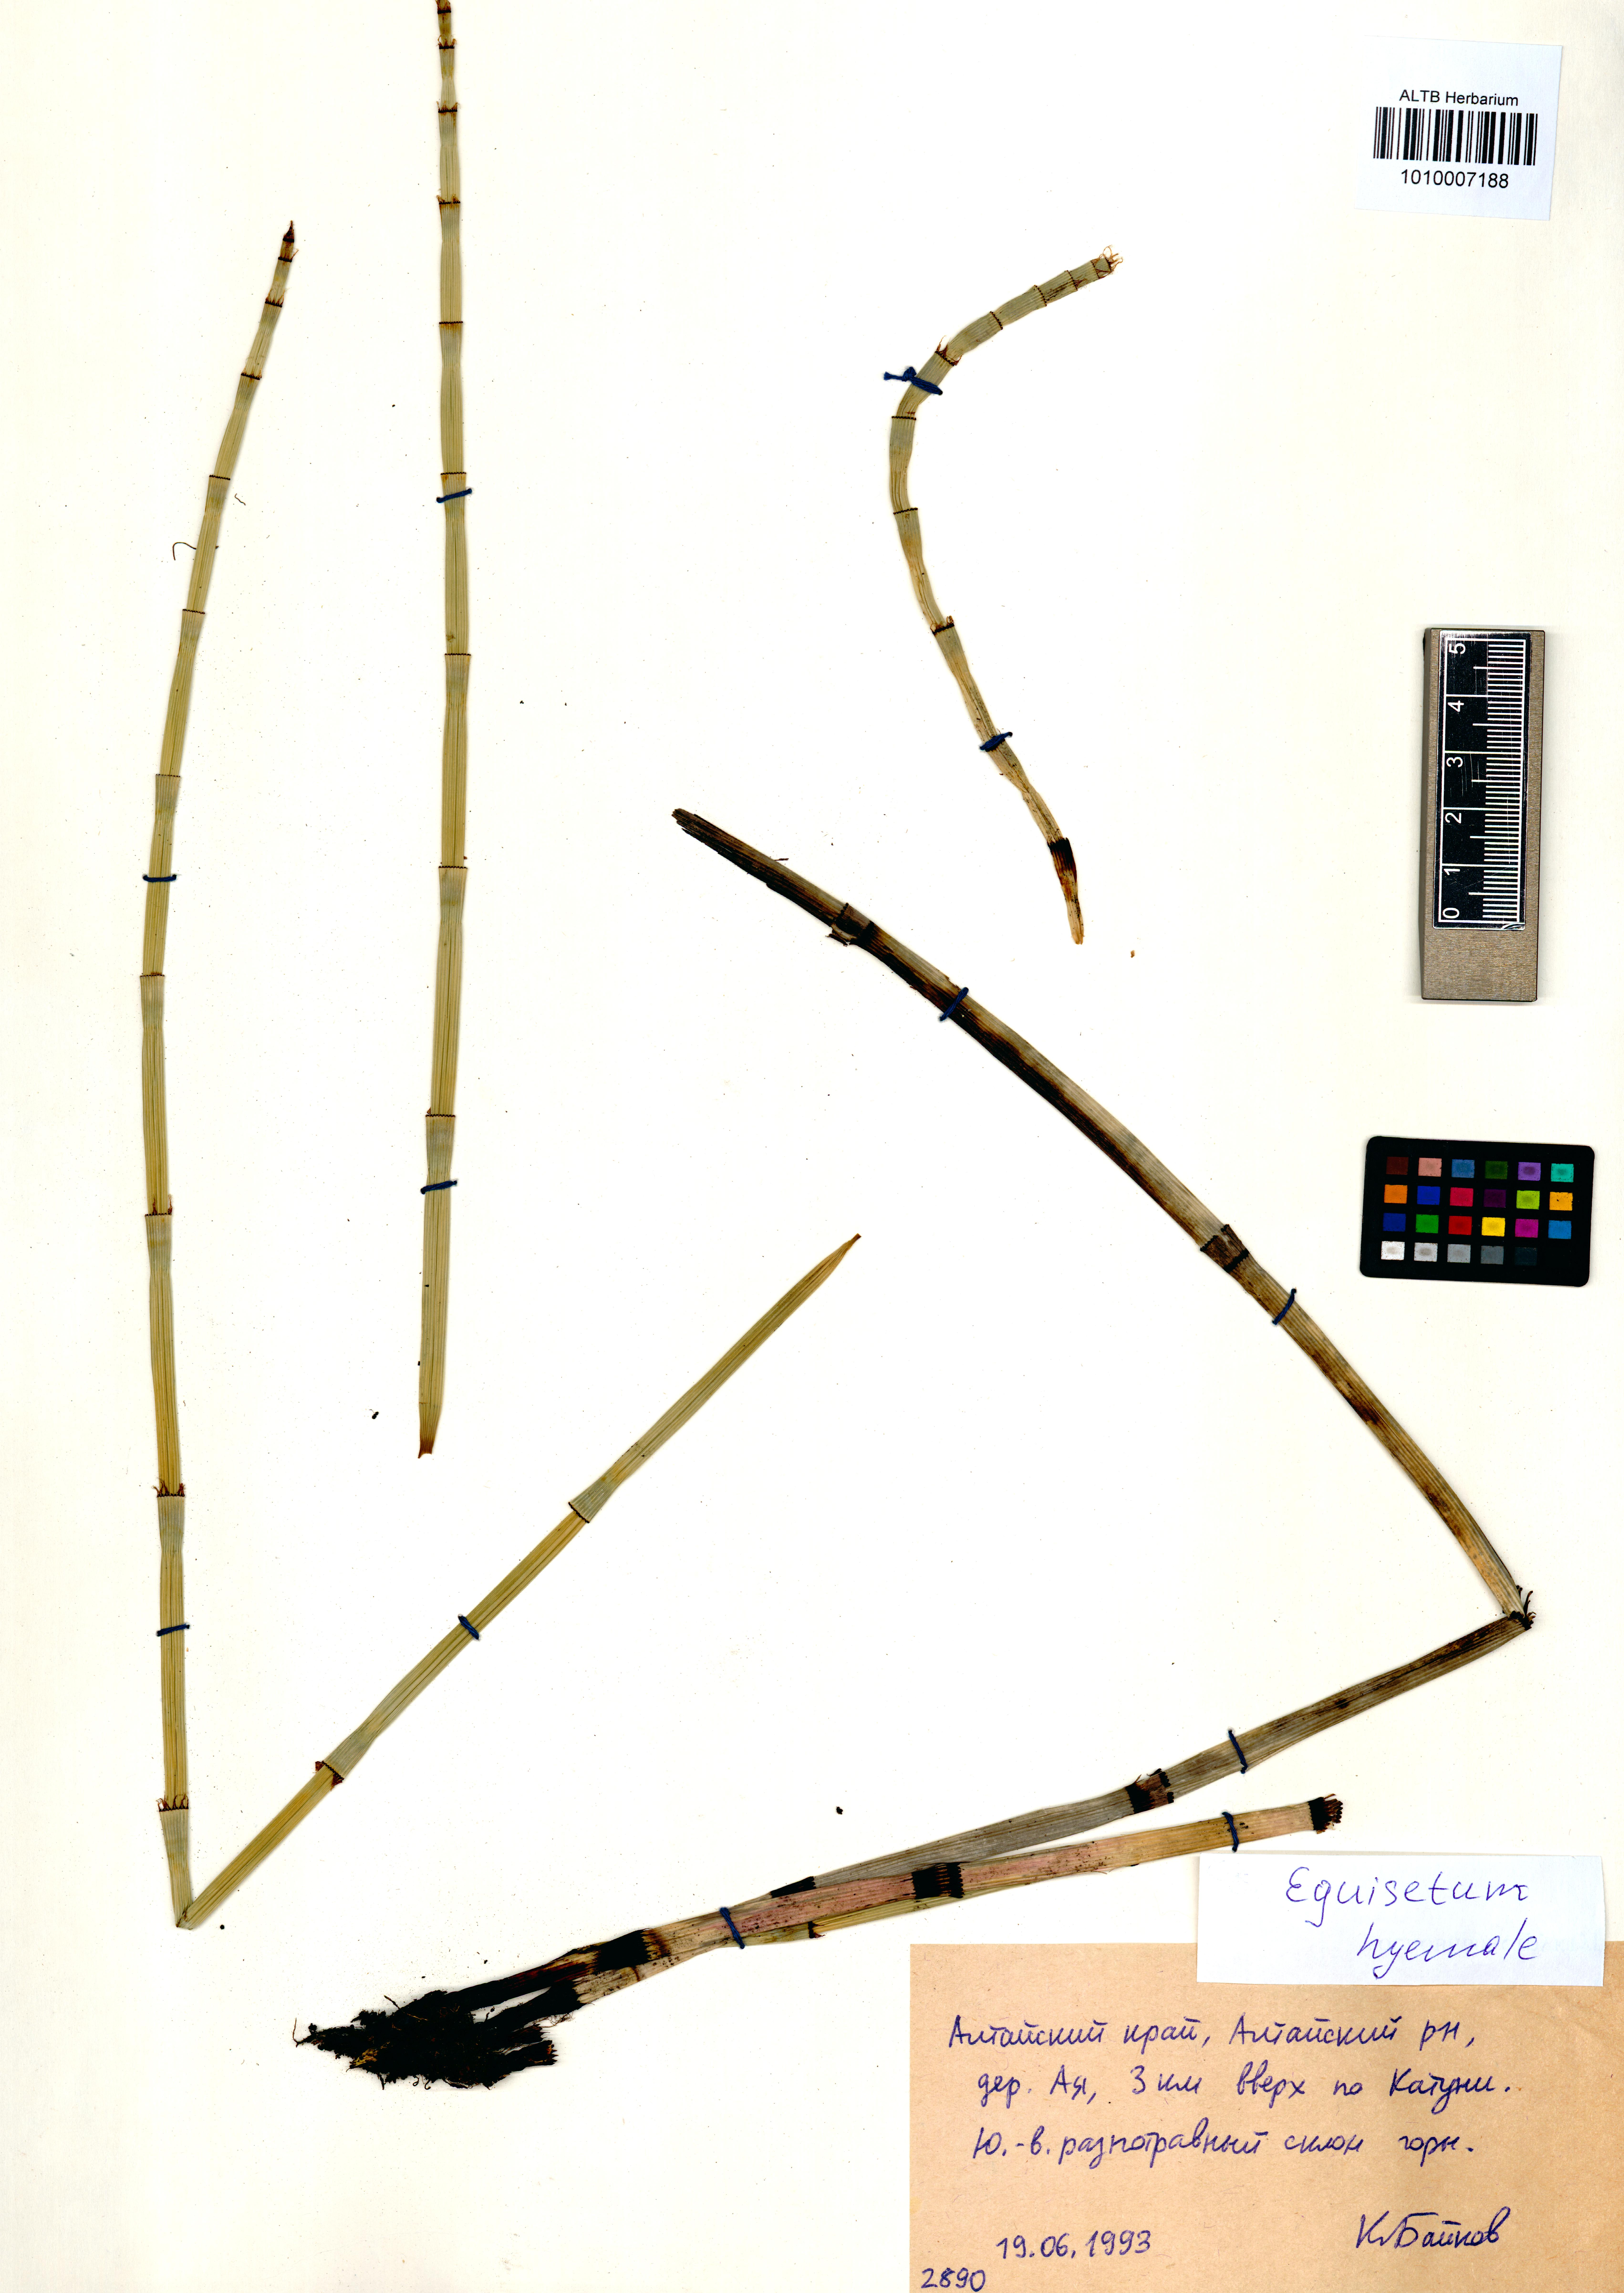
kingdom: Plantae
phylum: Tracheophyta
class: Polypodiopsida
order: Equisetales
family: Equisetaceae
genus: Equisetum
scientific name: Equisetum hyemale
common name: Rough horsetail
